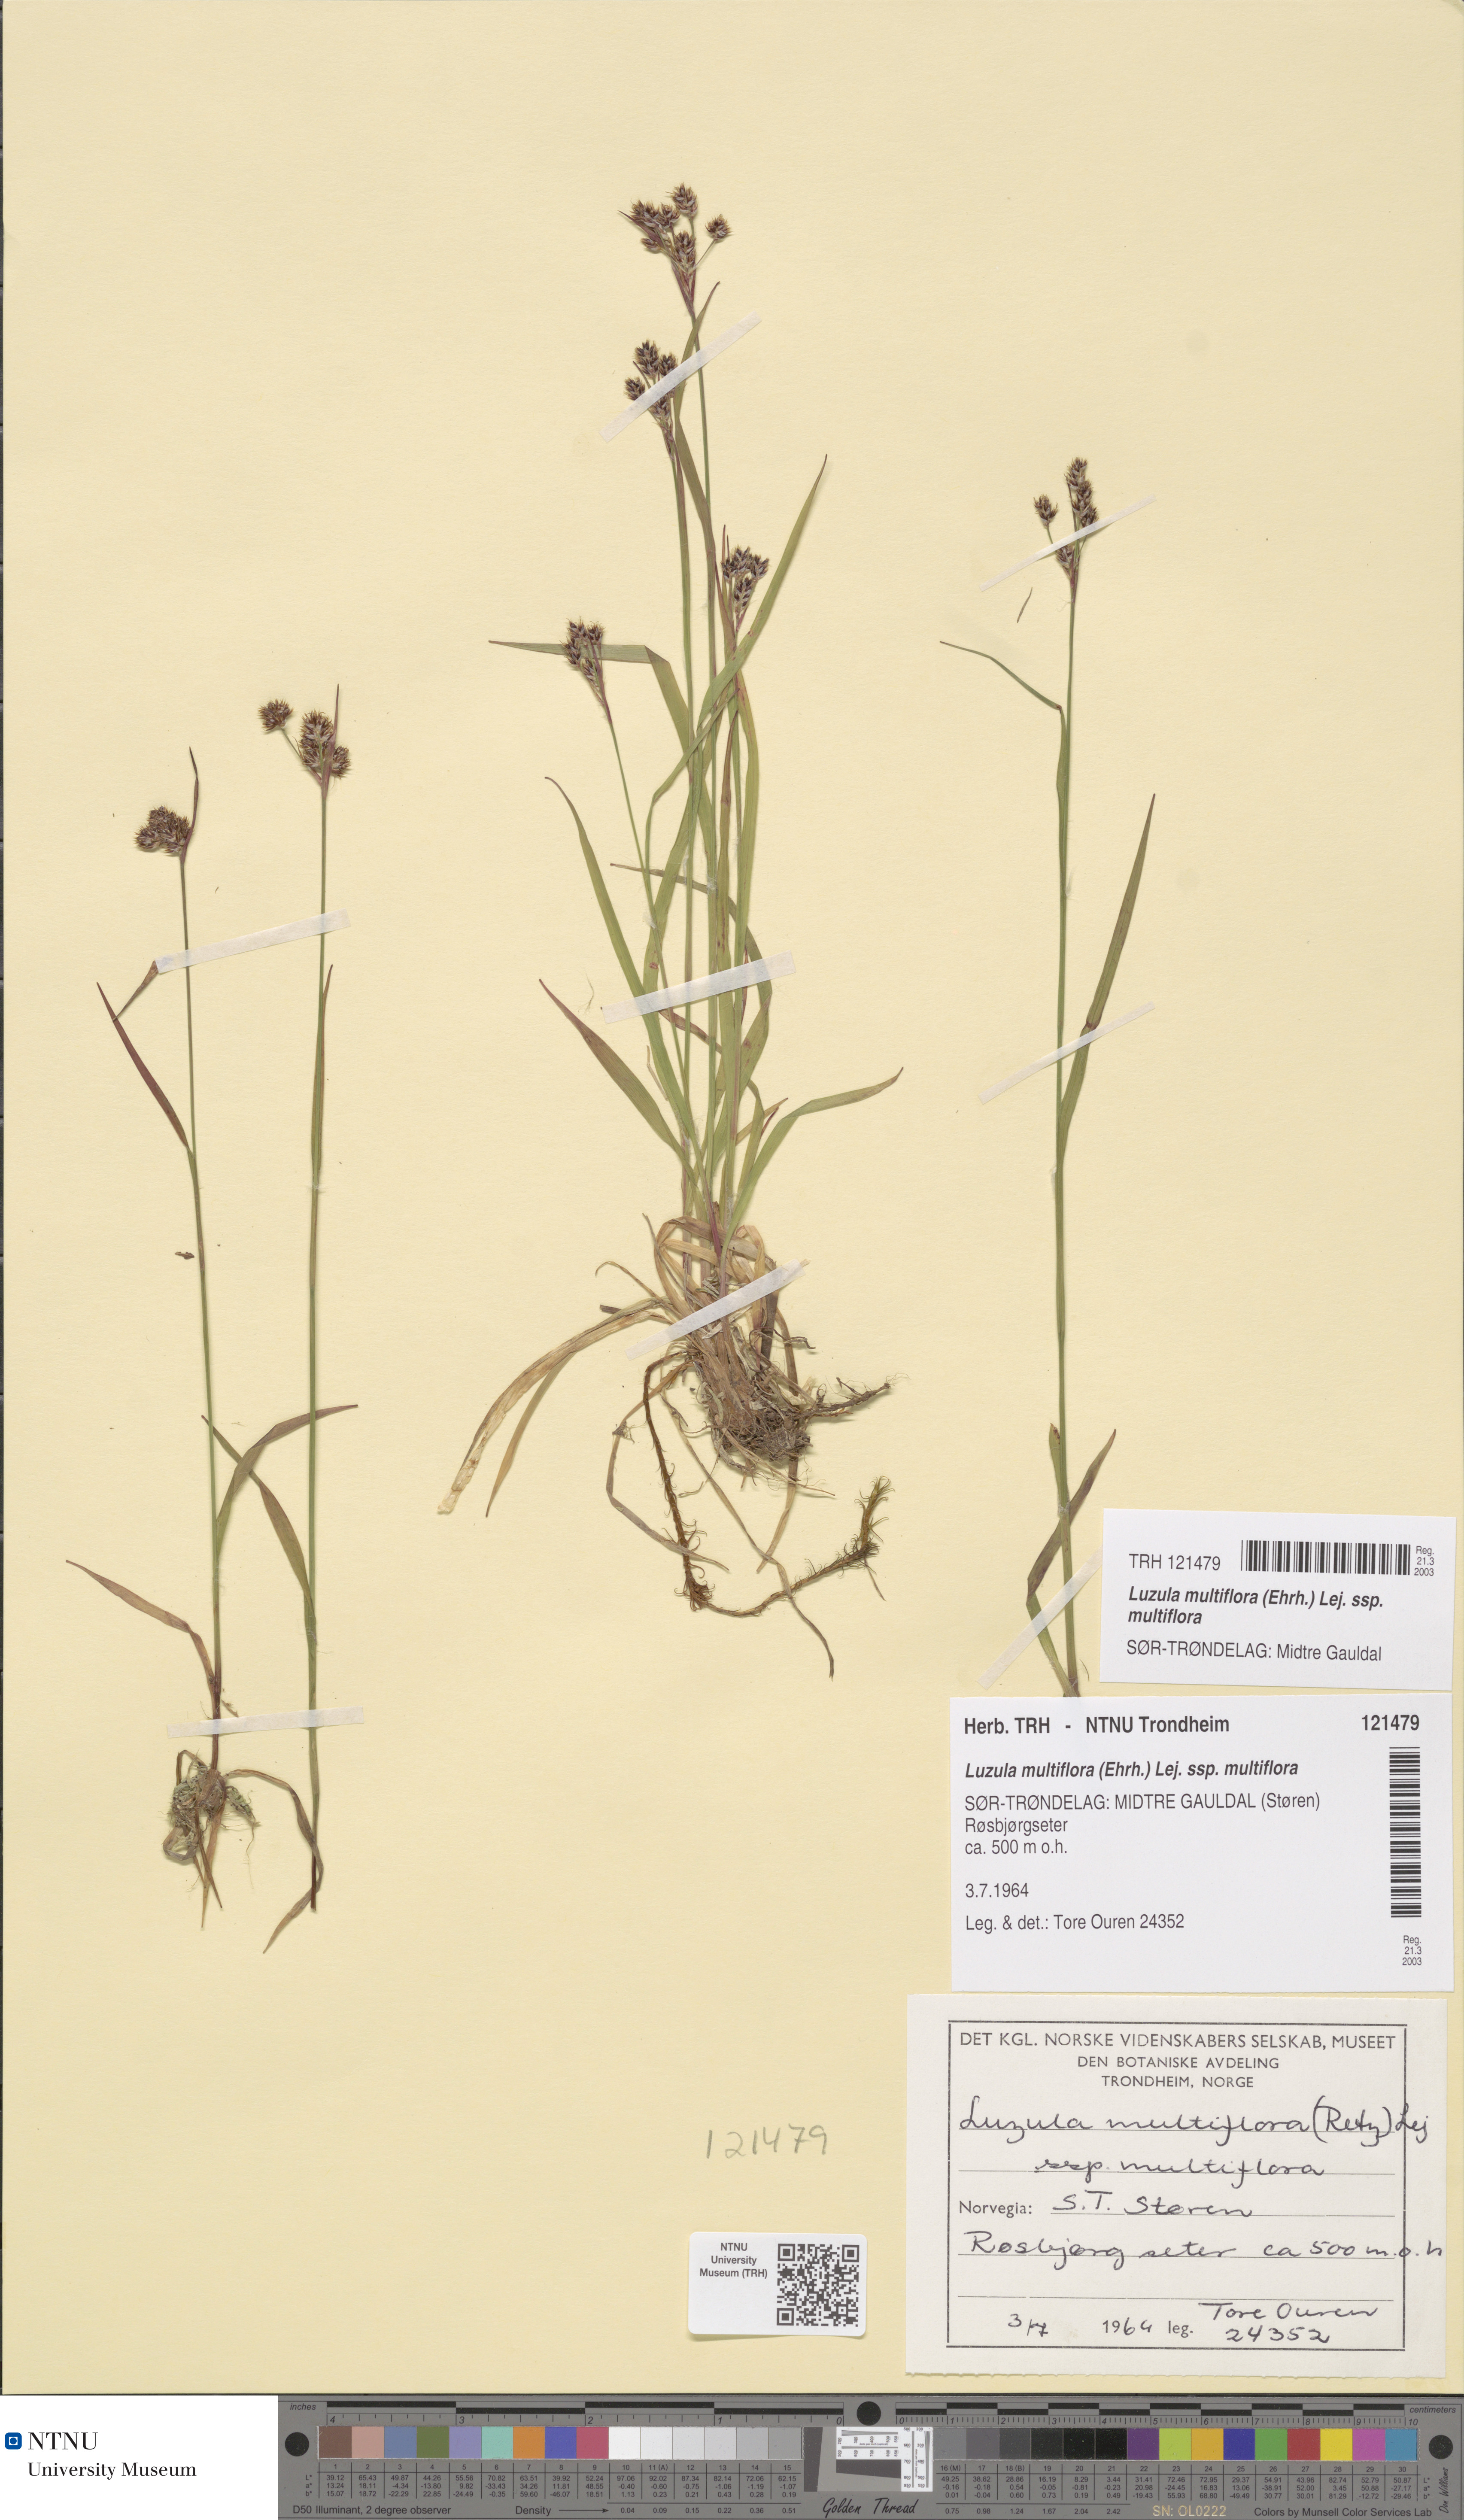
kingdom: Plantae
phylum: Tracheophyta
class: Liliopsida
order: Poales
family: Juncaceae
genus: Luzula
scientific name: Luzula multiflora
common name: Heath wood-rush
